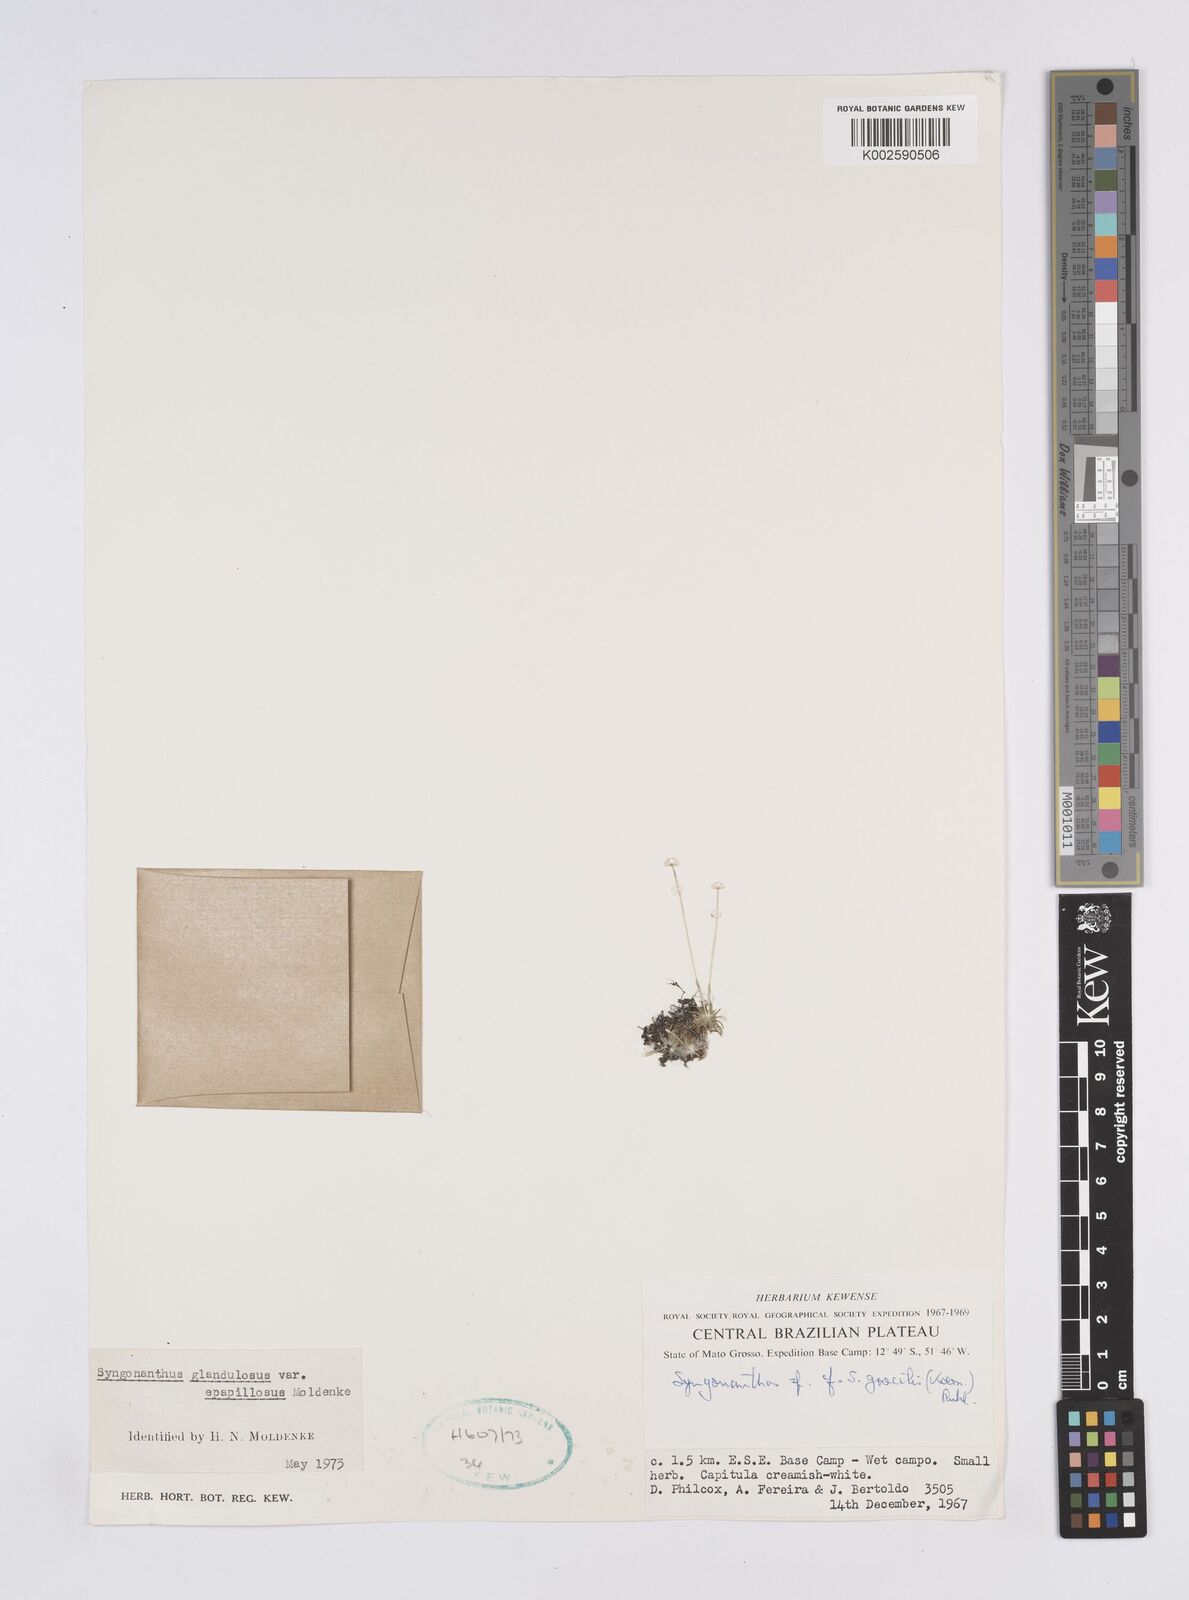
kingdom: Plantae
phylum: Tracheophyta
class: Liliopsida
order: Poales
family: Eriocaulaceae
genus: Syngonanthus
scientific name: Syngonanthus caulescens
